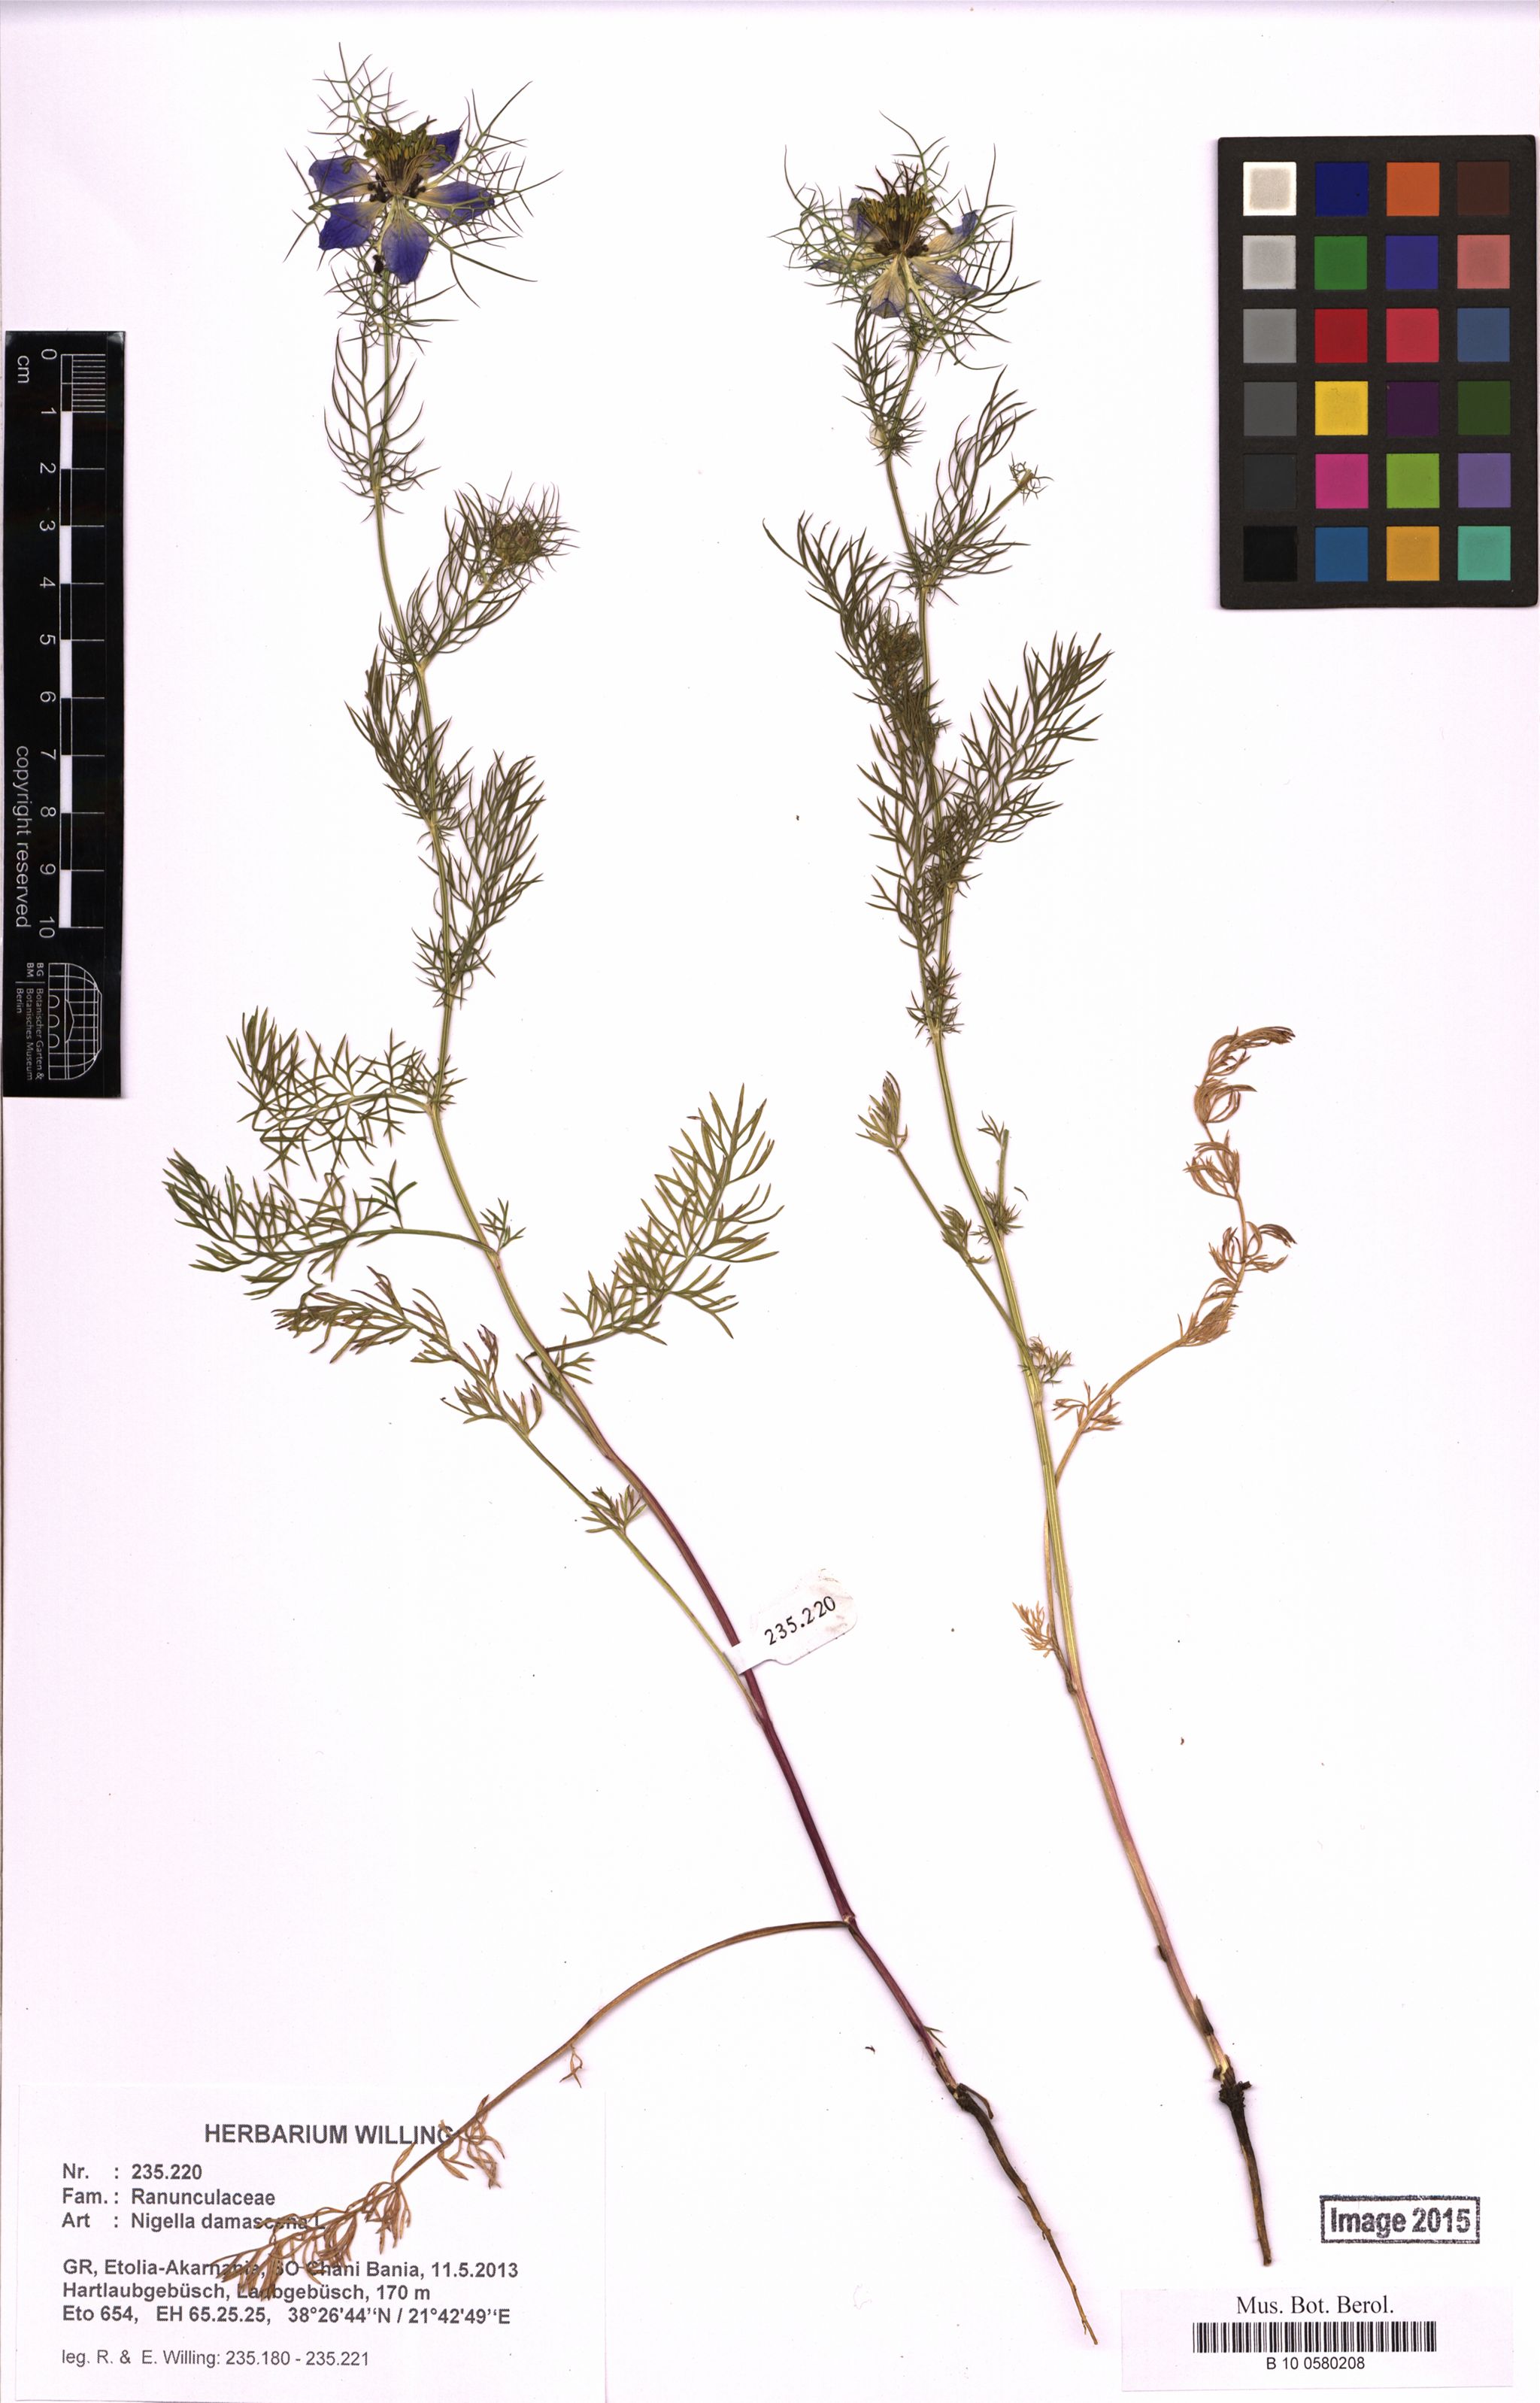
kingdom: Plantae
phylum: Tracheophyta
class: Magnoliopsida
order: Ranunculales
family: Ranunculaceae
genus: Nigella
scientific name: Nigella damascena
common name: Love-in-a-mist
